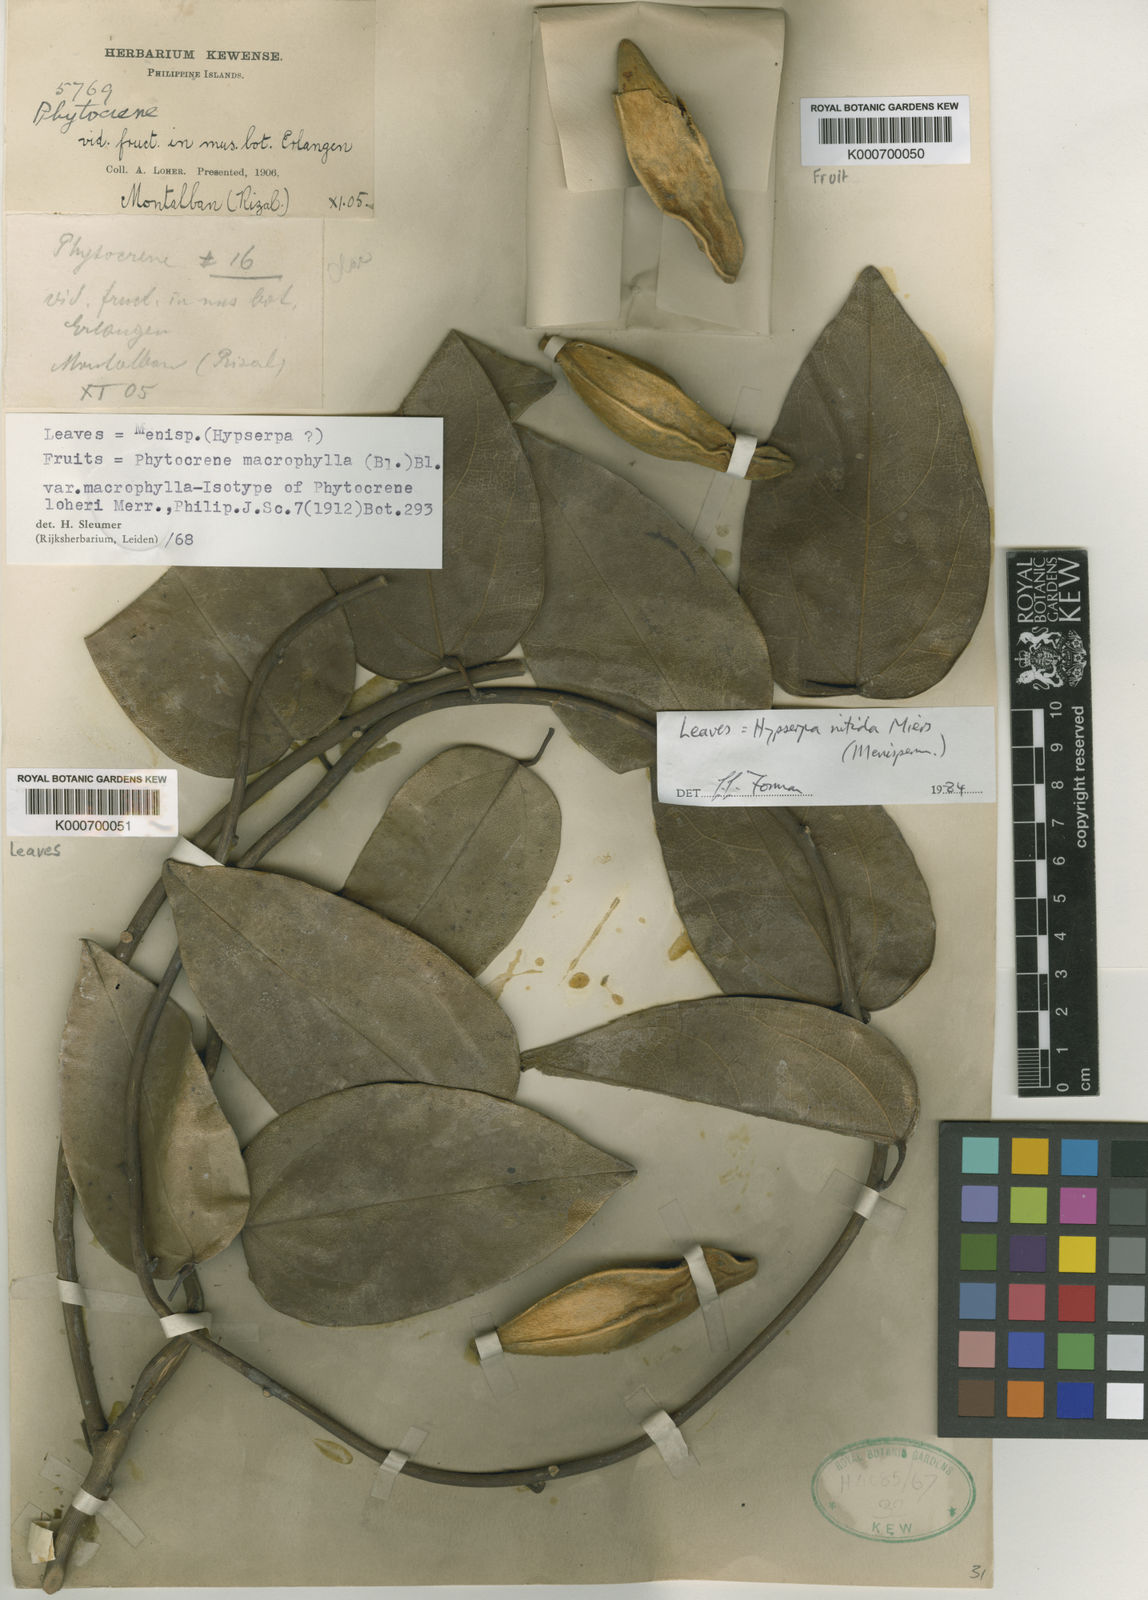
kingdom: Plantae
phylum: Tracheophyta
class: Magnoliopsida
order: Icacinales
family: Icacinaceae
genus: Phytocrene
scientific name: Phytocrene macrophylla
